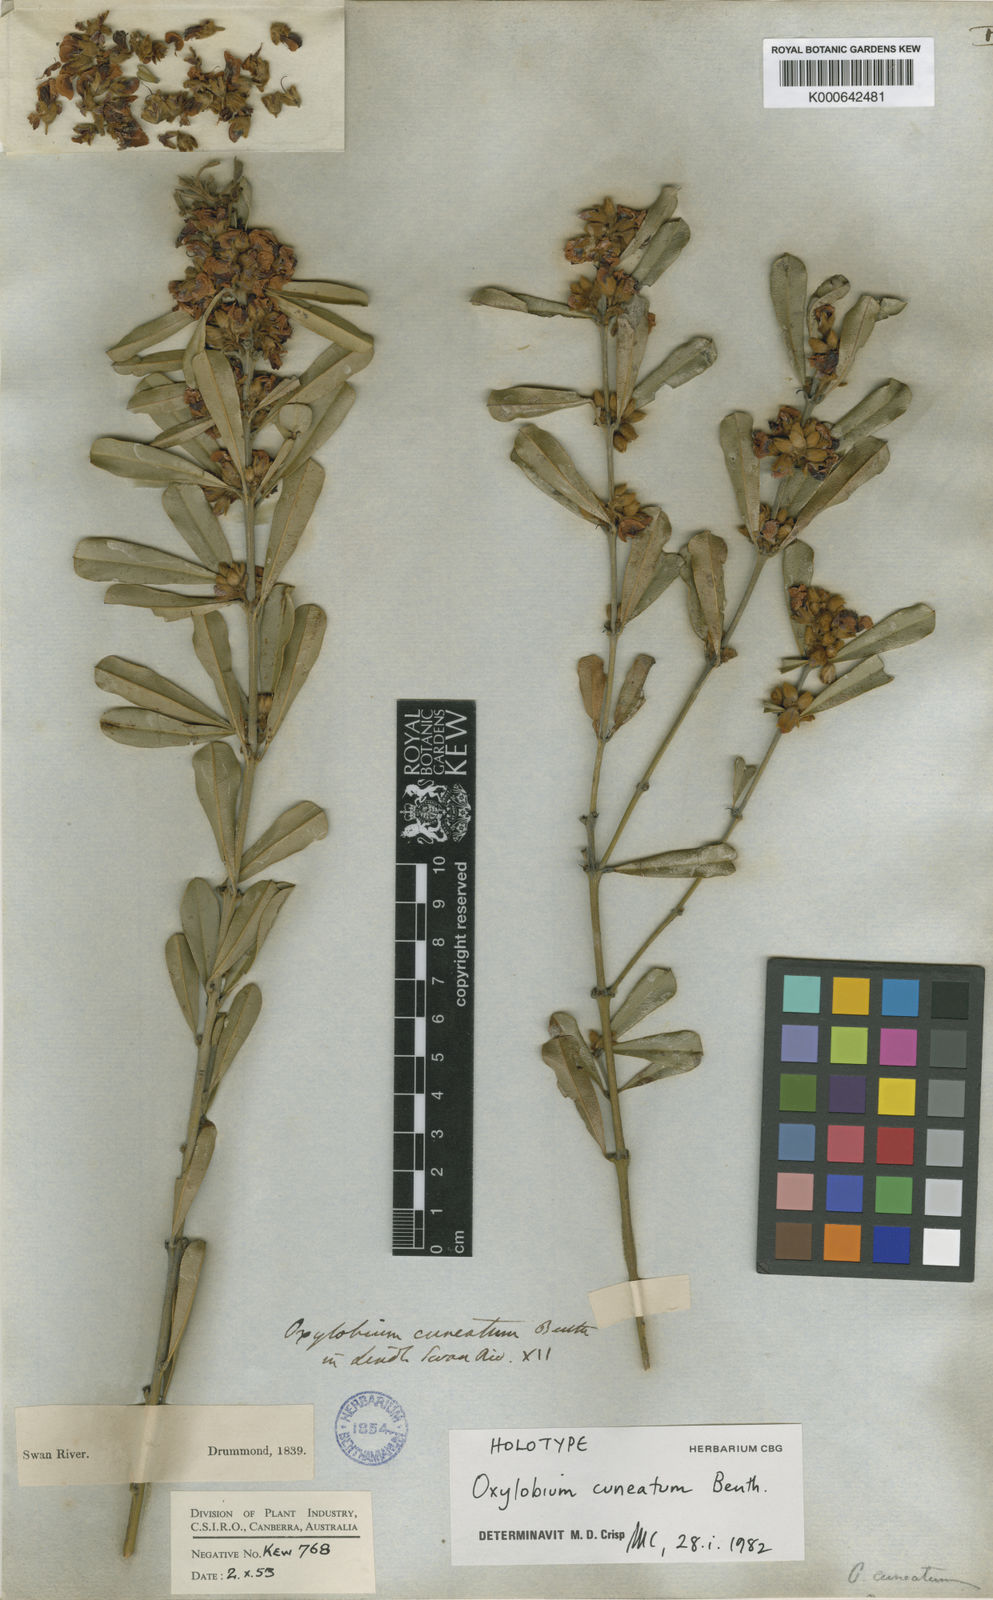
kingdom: Plantae
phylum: Tracheophyta
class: Magnoliopsida
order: Fabales
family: Fabaceae
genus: Gastrolobium
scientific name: Gastrolobium cuneatum
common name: River poisonbush
